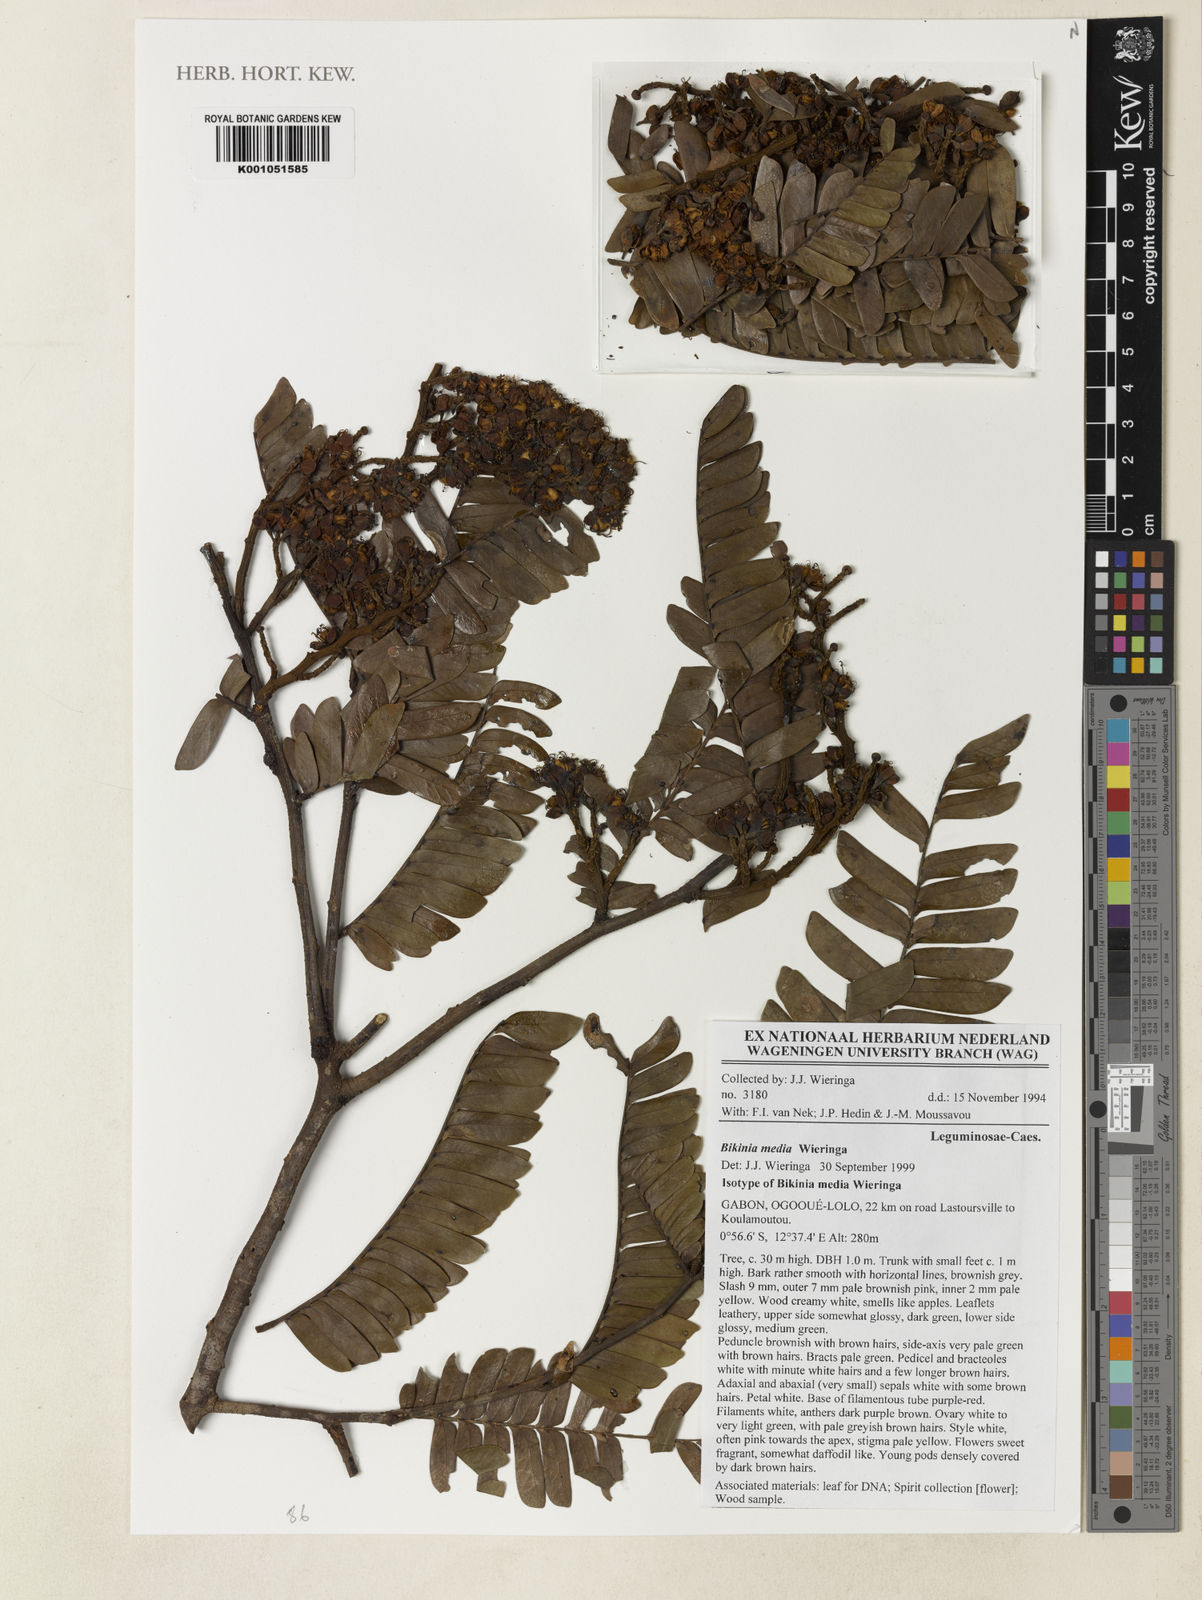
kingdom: Plantae
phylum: Tracheophyta
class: Magnoliopsida
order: Fabales
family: Fabaceae
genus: Bikinia
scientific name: Bikinia media
